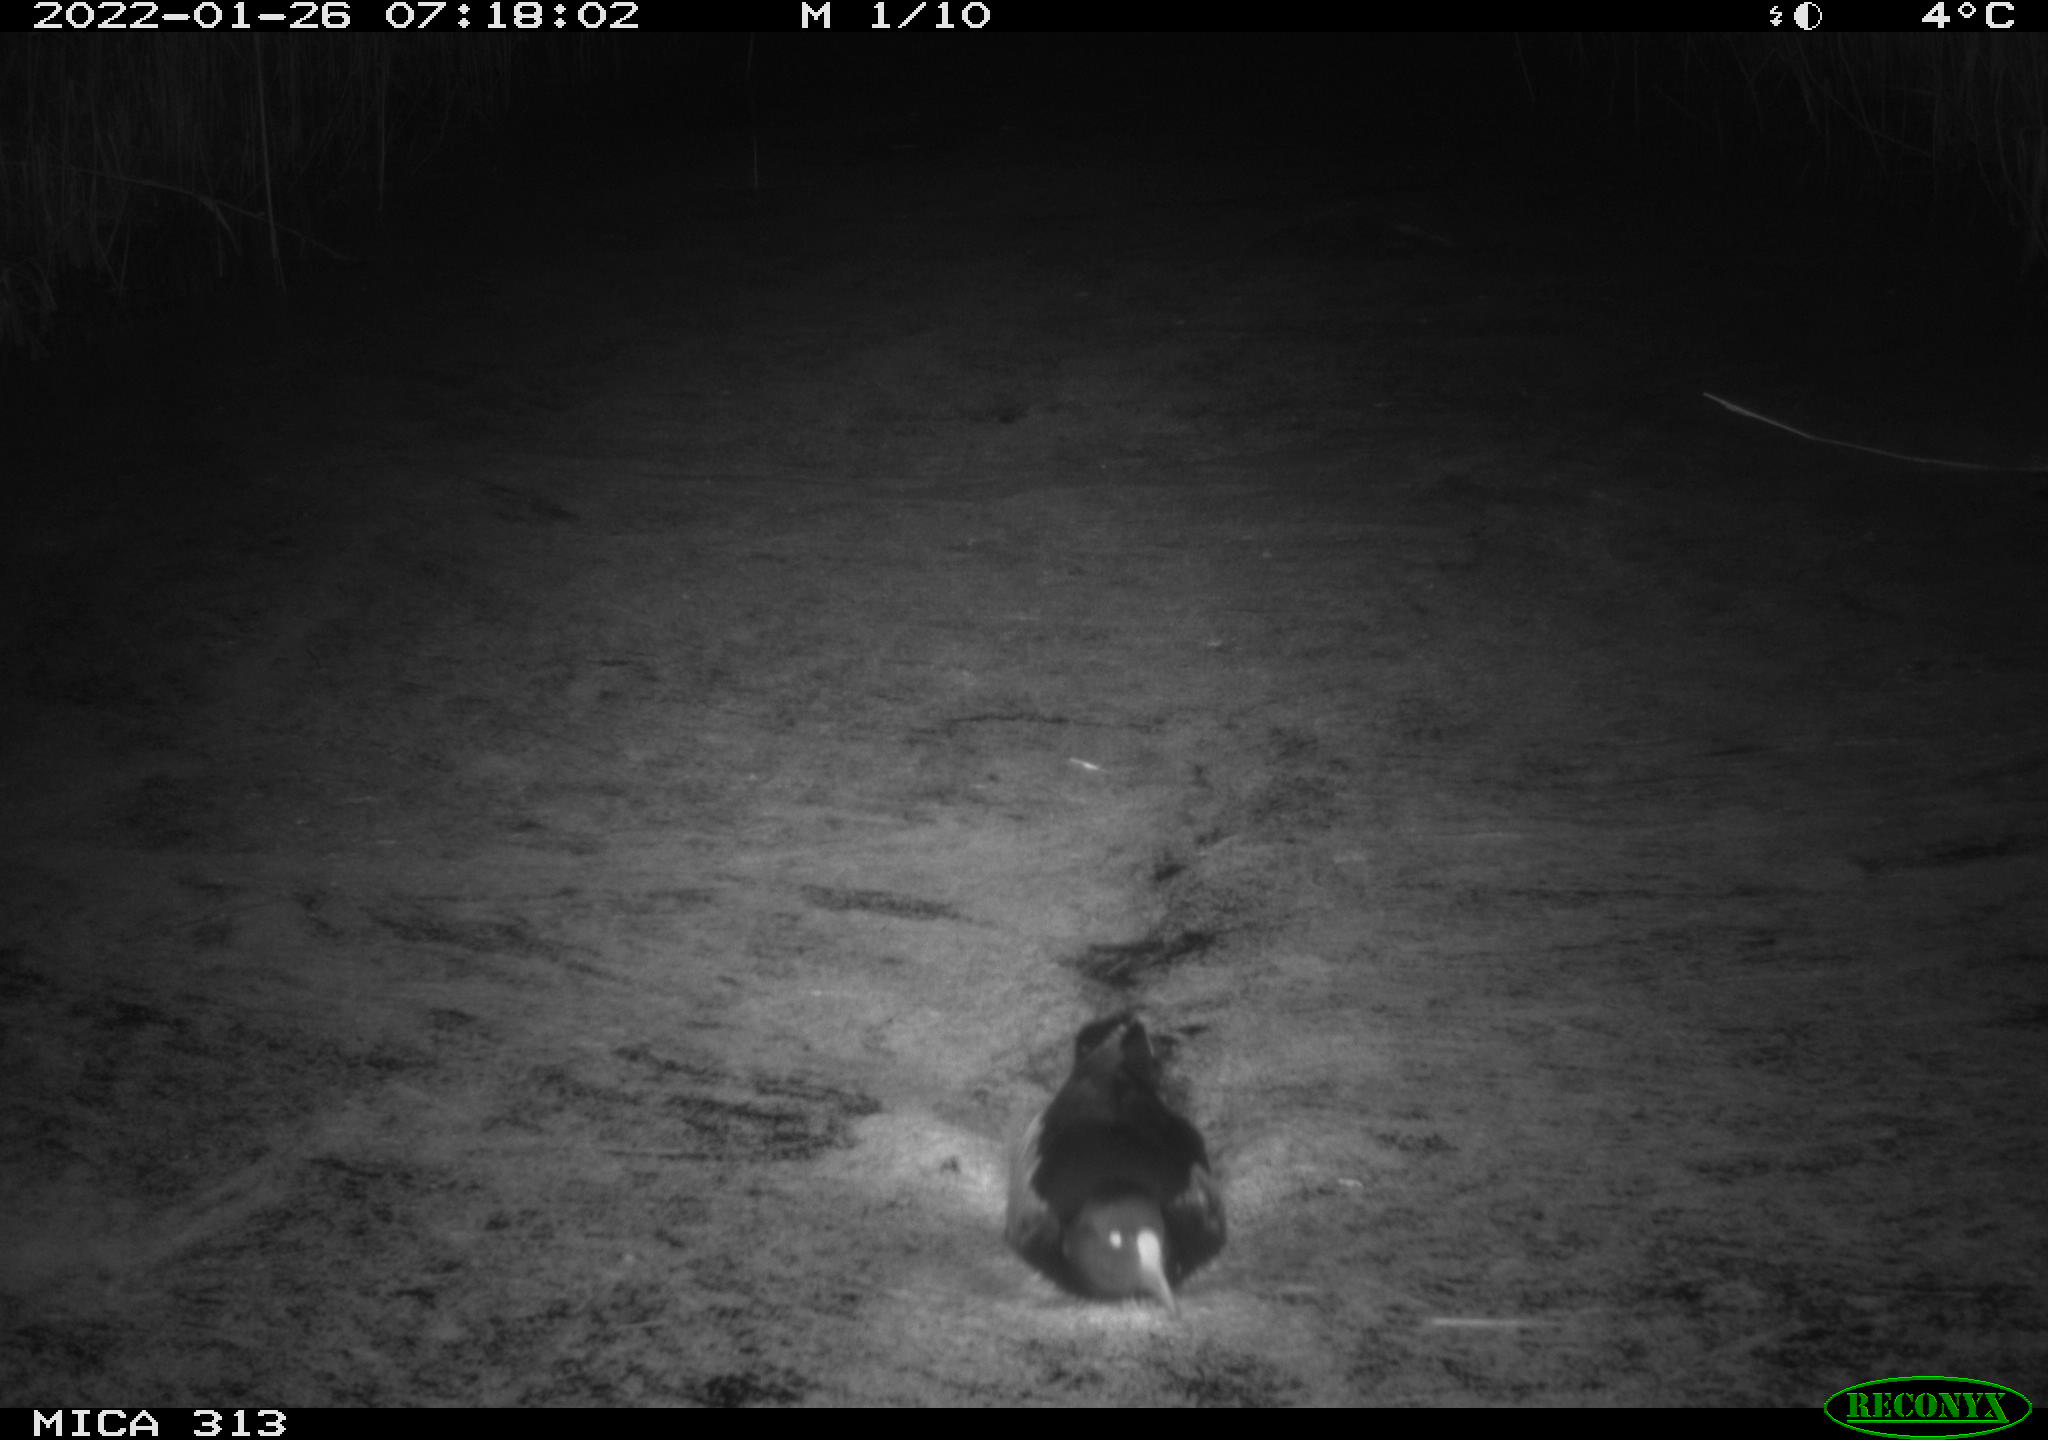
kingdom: Animalia
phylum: Chordata
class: Aves
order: Gruiformes
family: Rallidae
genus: Gallinula
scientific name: Gallinula chloropus
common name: Common moorhen
